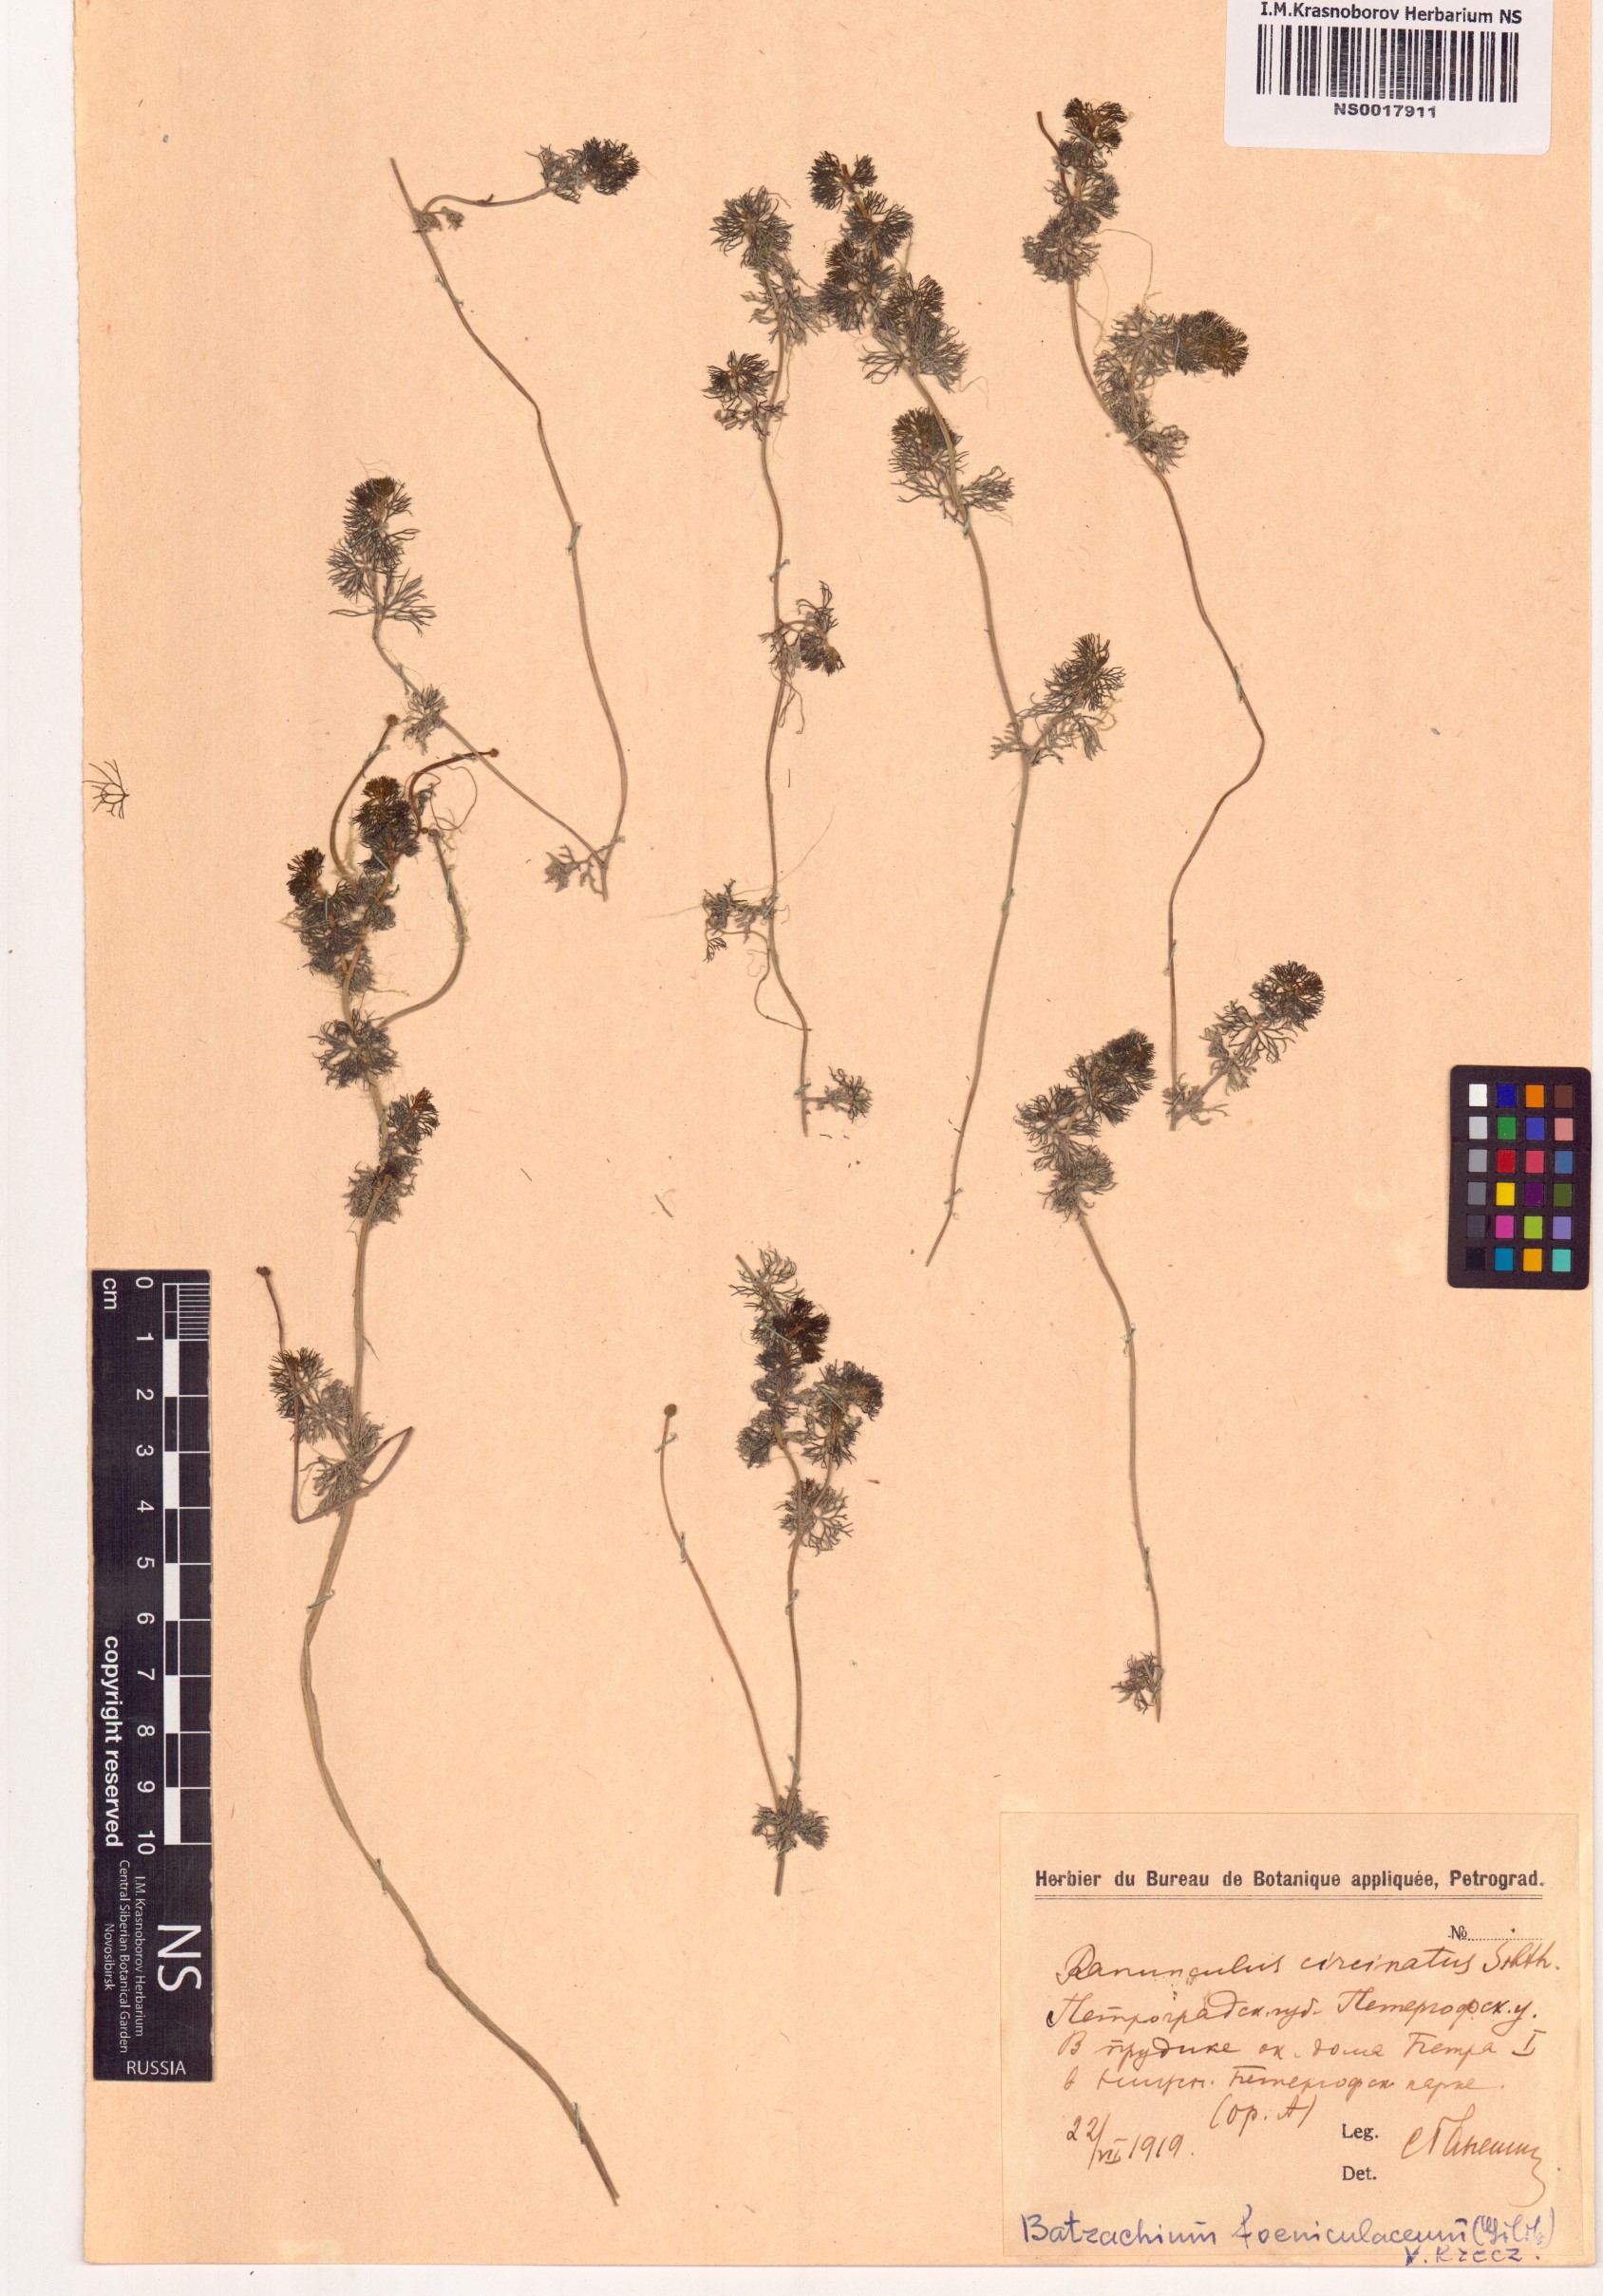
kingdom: Plantae
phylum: Tracheophyta
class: Magnoliopsida
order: Ranunculales
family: Ranunculaceae
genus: Ranunculus
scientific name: Ranunculus circinatus
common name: Fan-leaved water-crowfoot
